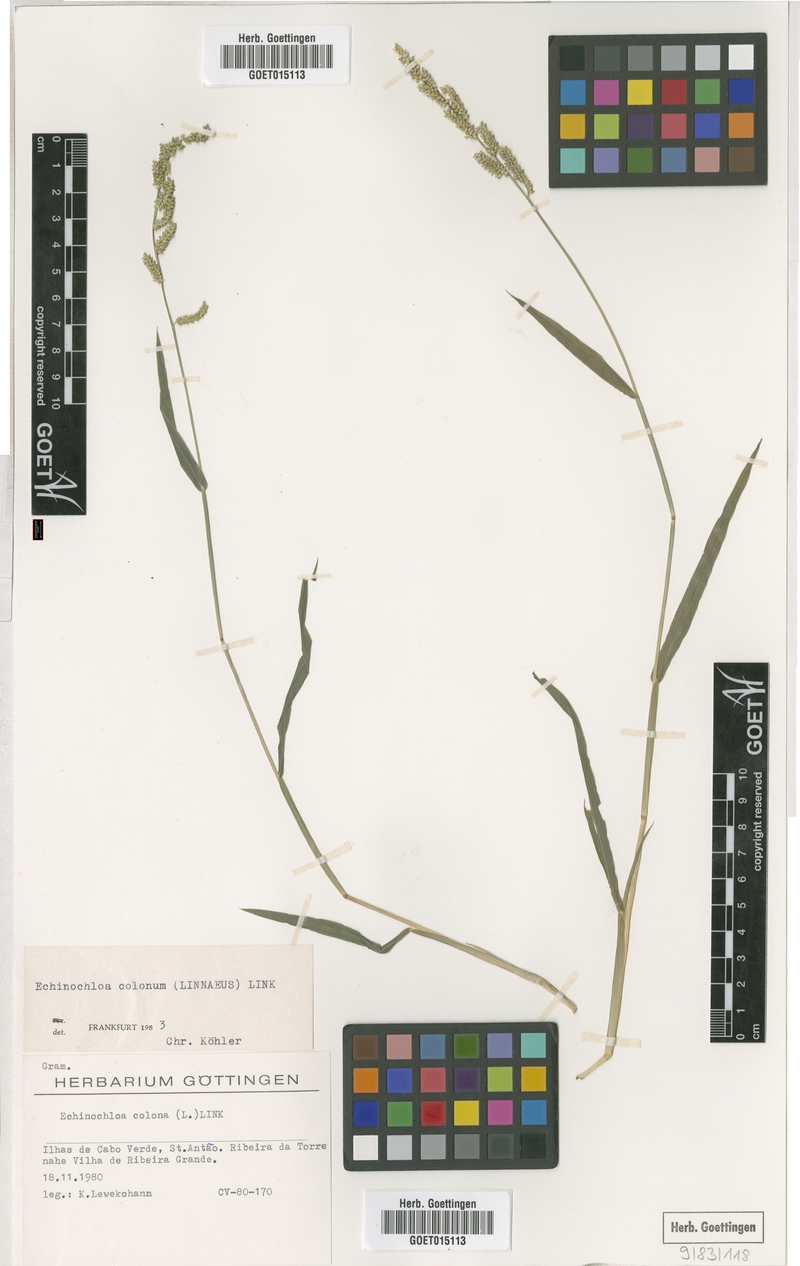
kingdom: Plantae
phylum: Tracheophyta
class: Liliopsida
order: Poales
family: Poaceae
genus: Echinochloa
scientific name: Echinochloa colonum
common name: Jungle rice
